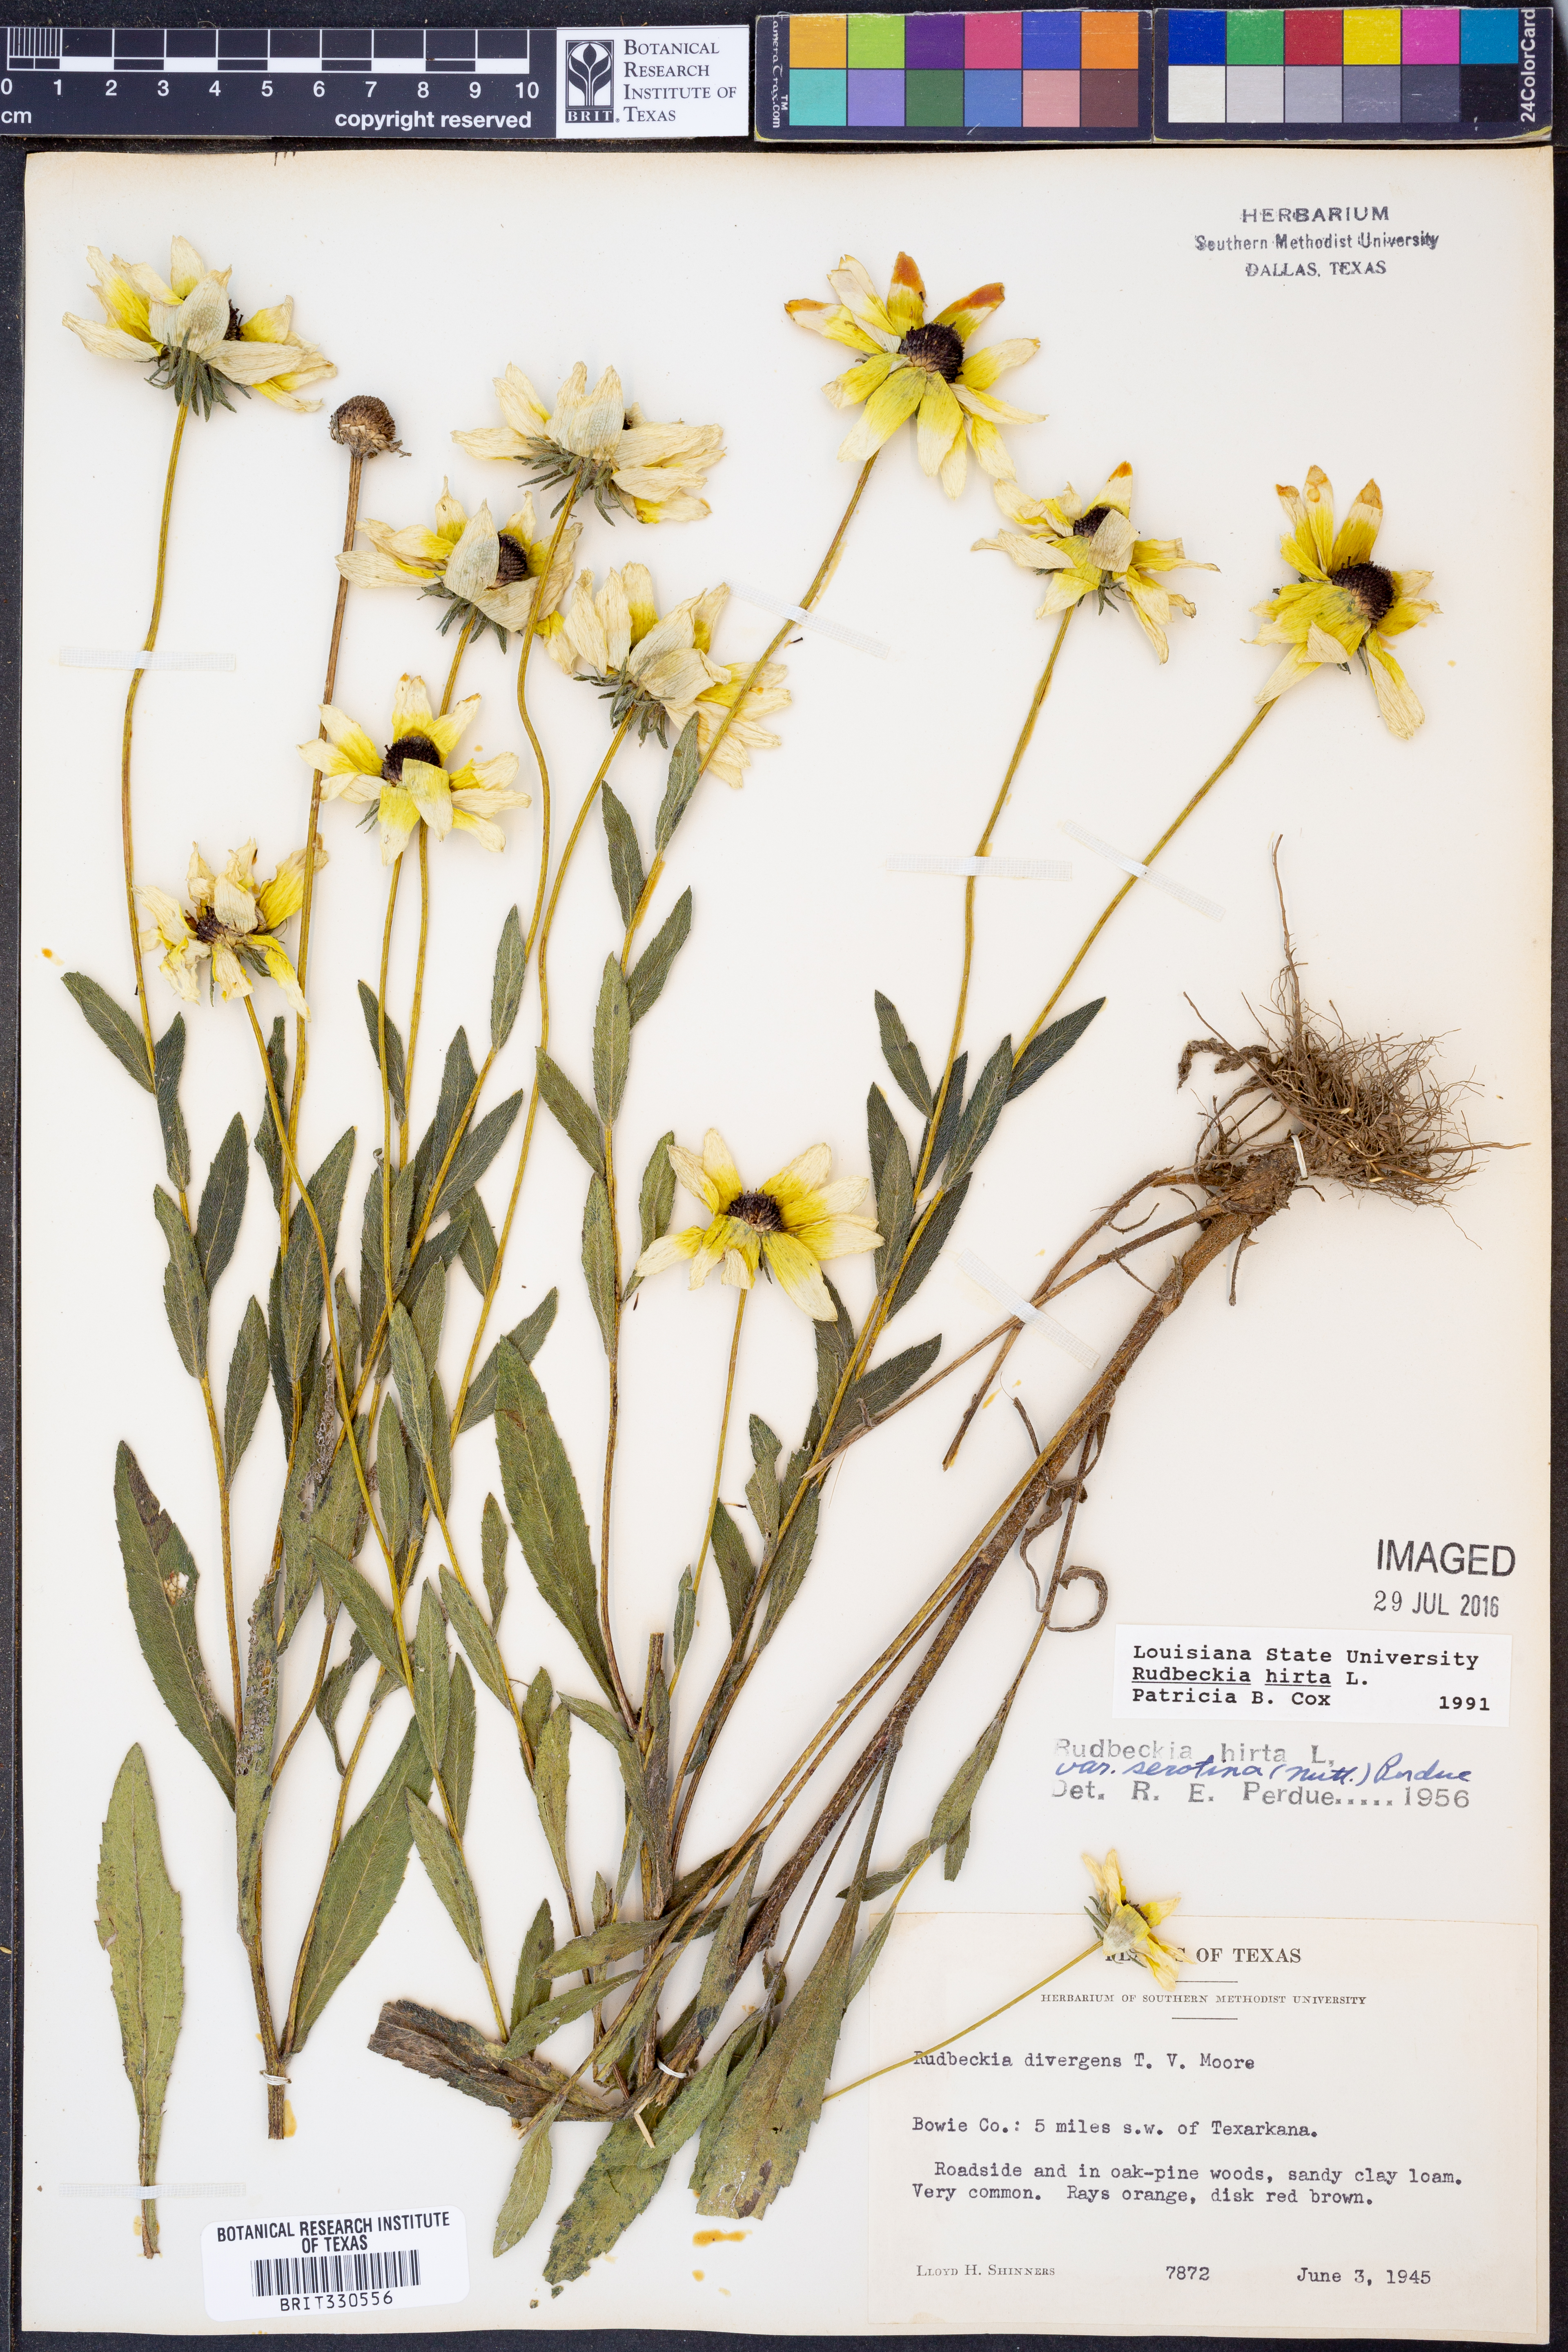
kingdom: Plantae
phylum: Tracheophyta
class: Magnoliopsida
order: Asterales
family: Asteraceae
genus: Rudbeckia
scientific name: Rudbeckia hirta
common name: Black-eyed-susan
